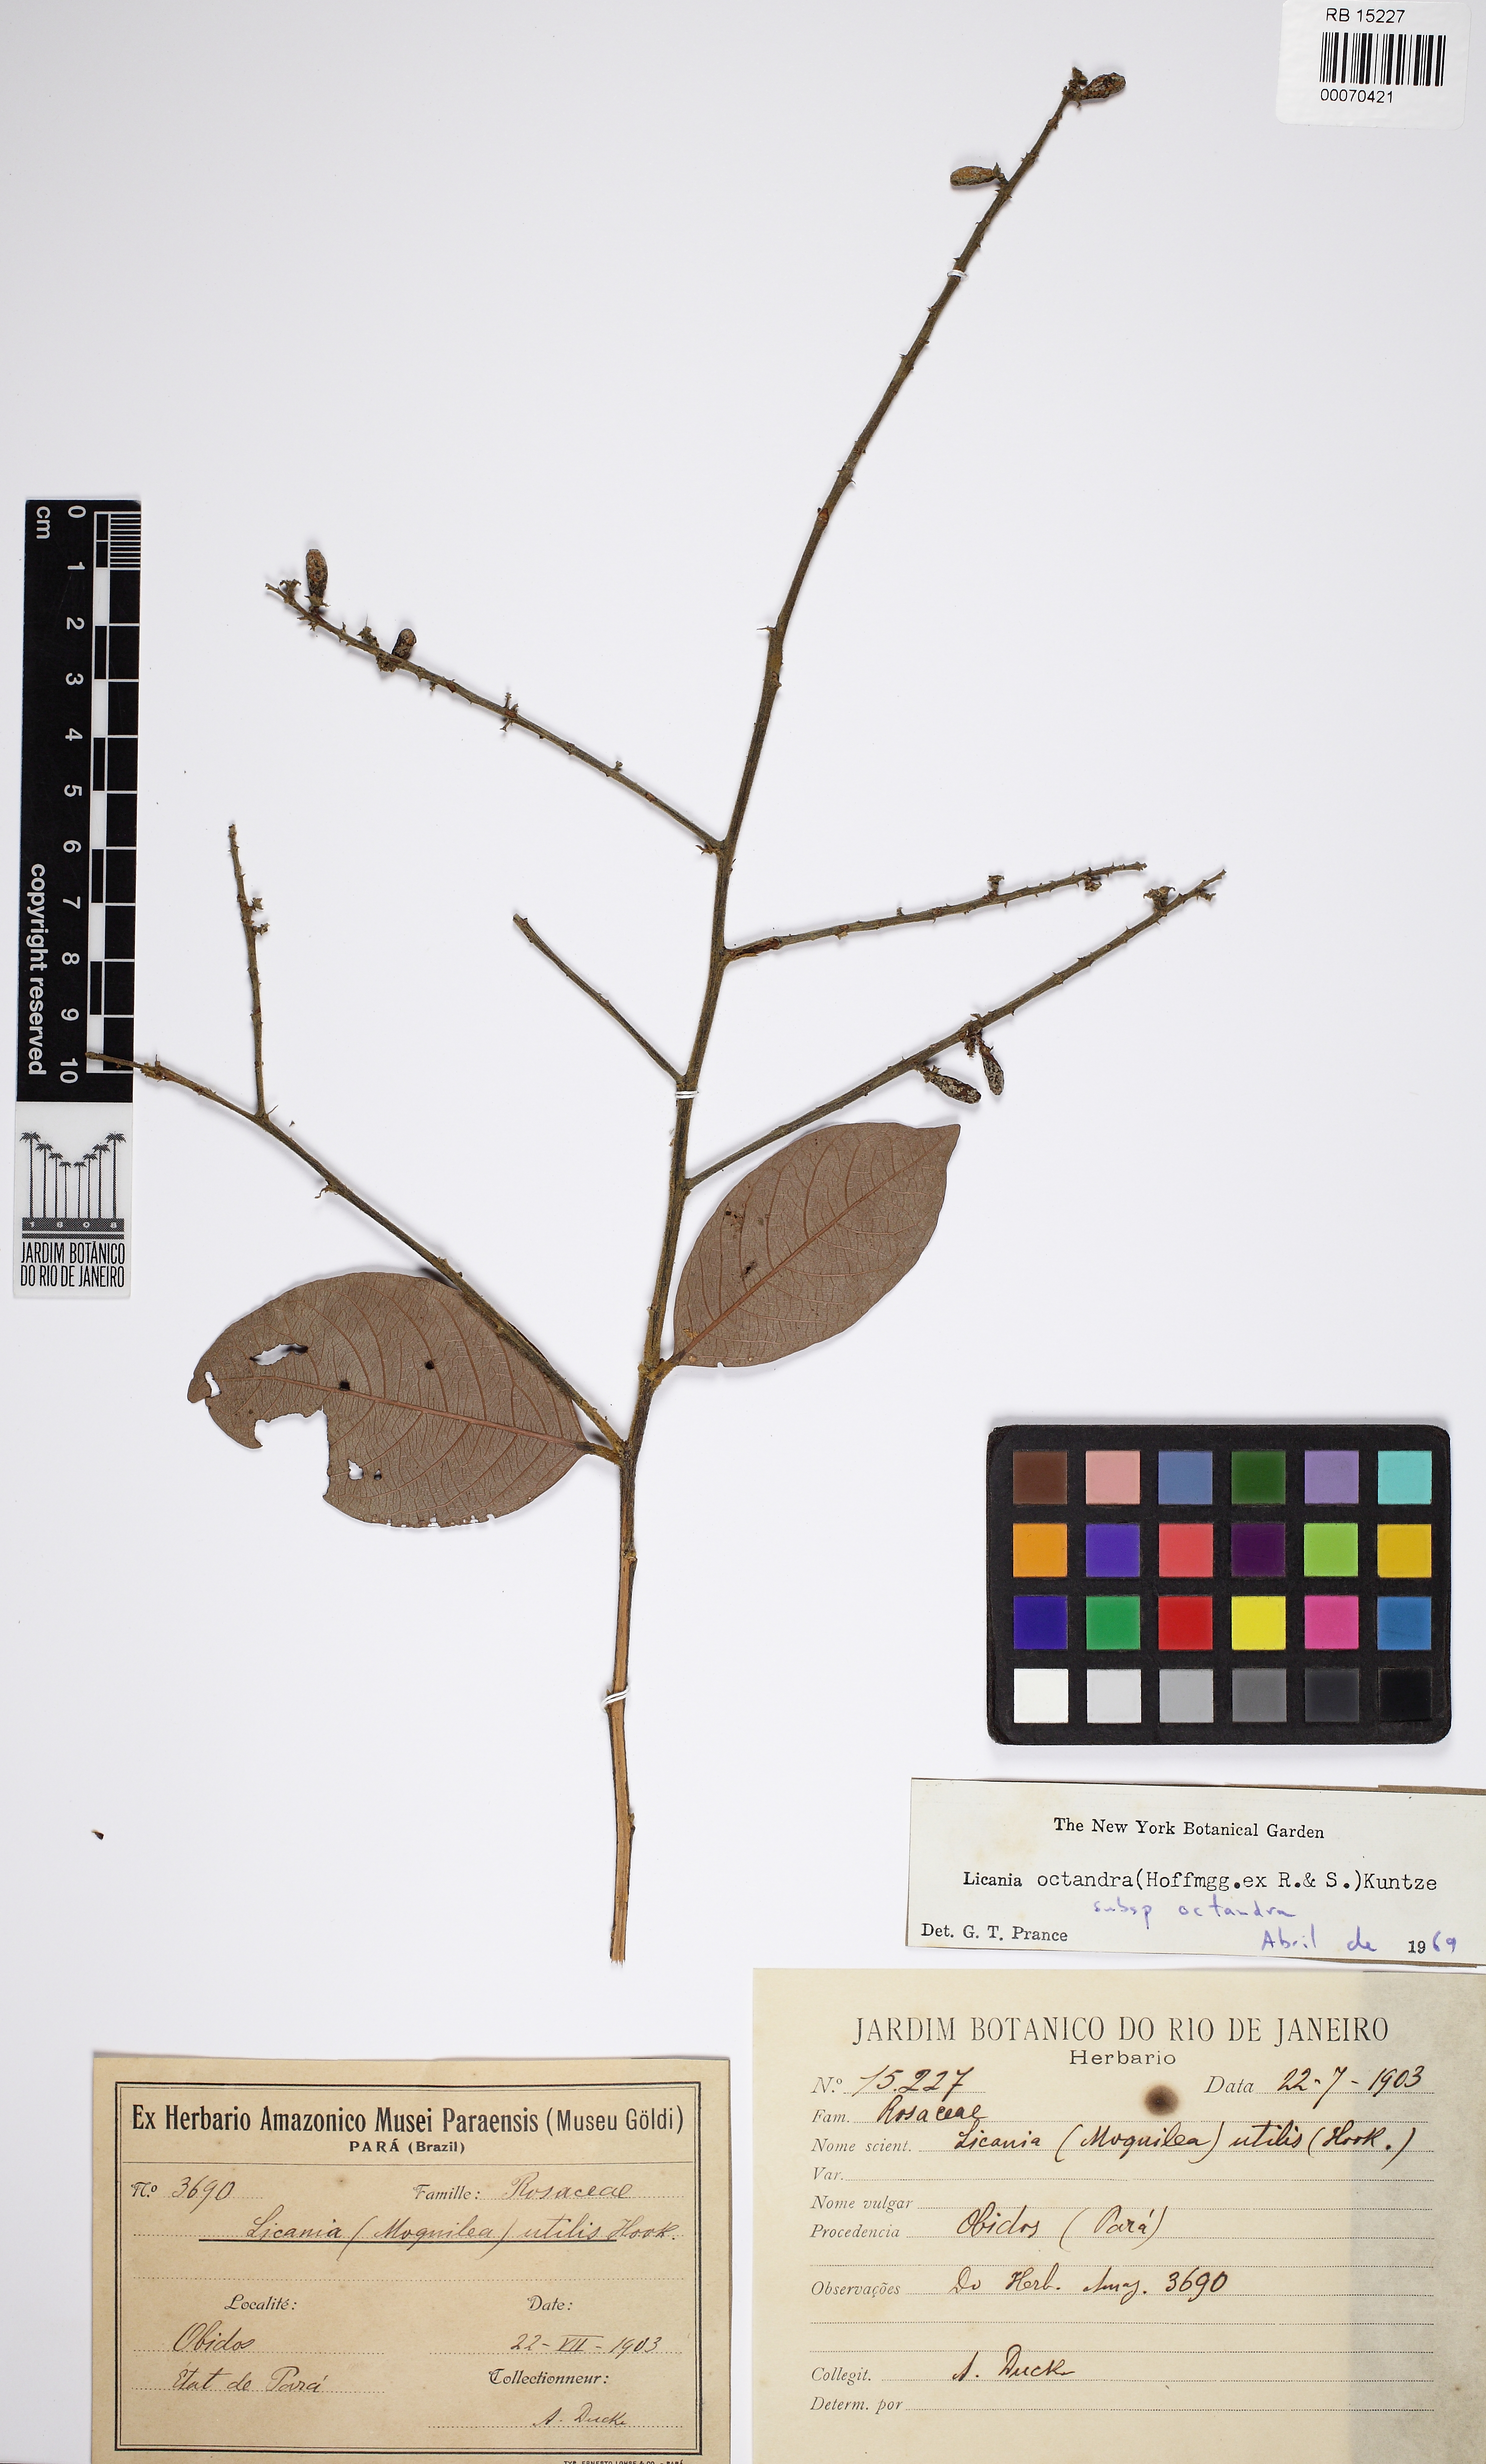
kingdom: Plantae
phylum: Tracheophyta
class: Magnoliopsida
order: Malpighiales
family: Chrysobalanaceae
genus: Leptobalanus
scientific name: Leptobalanus octandrus
